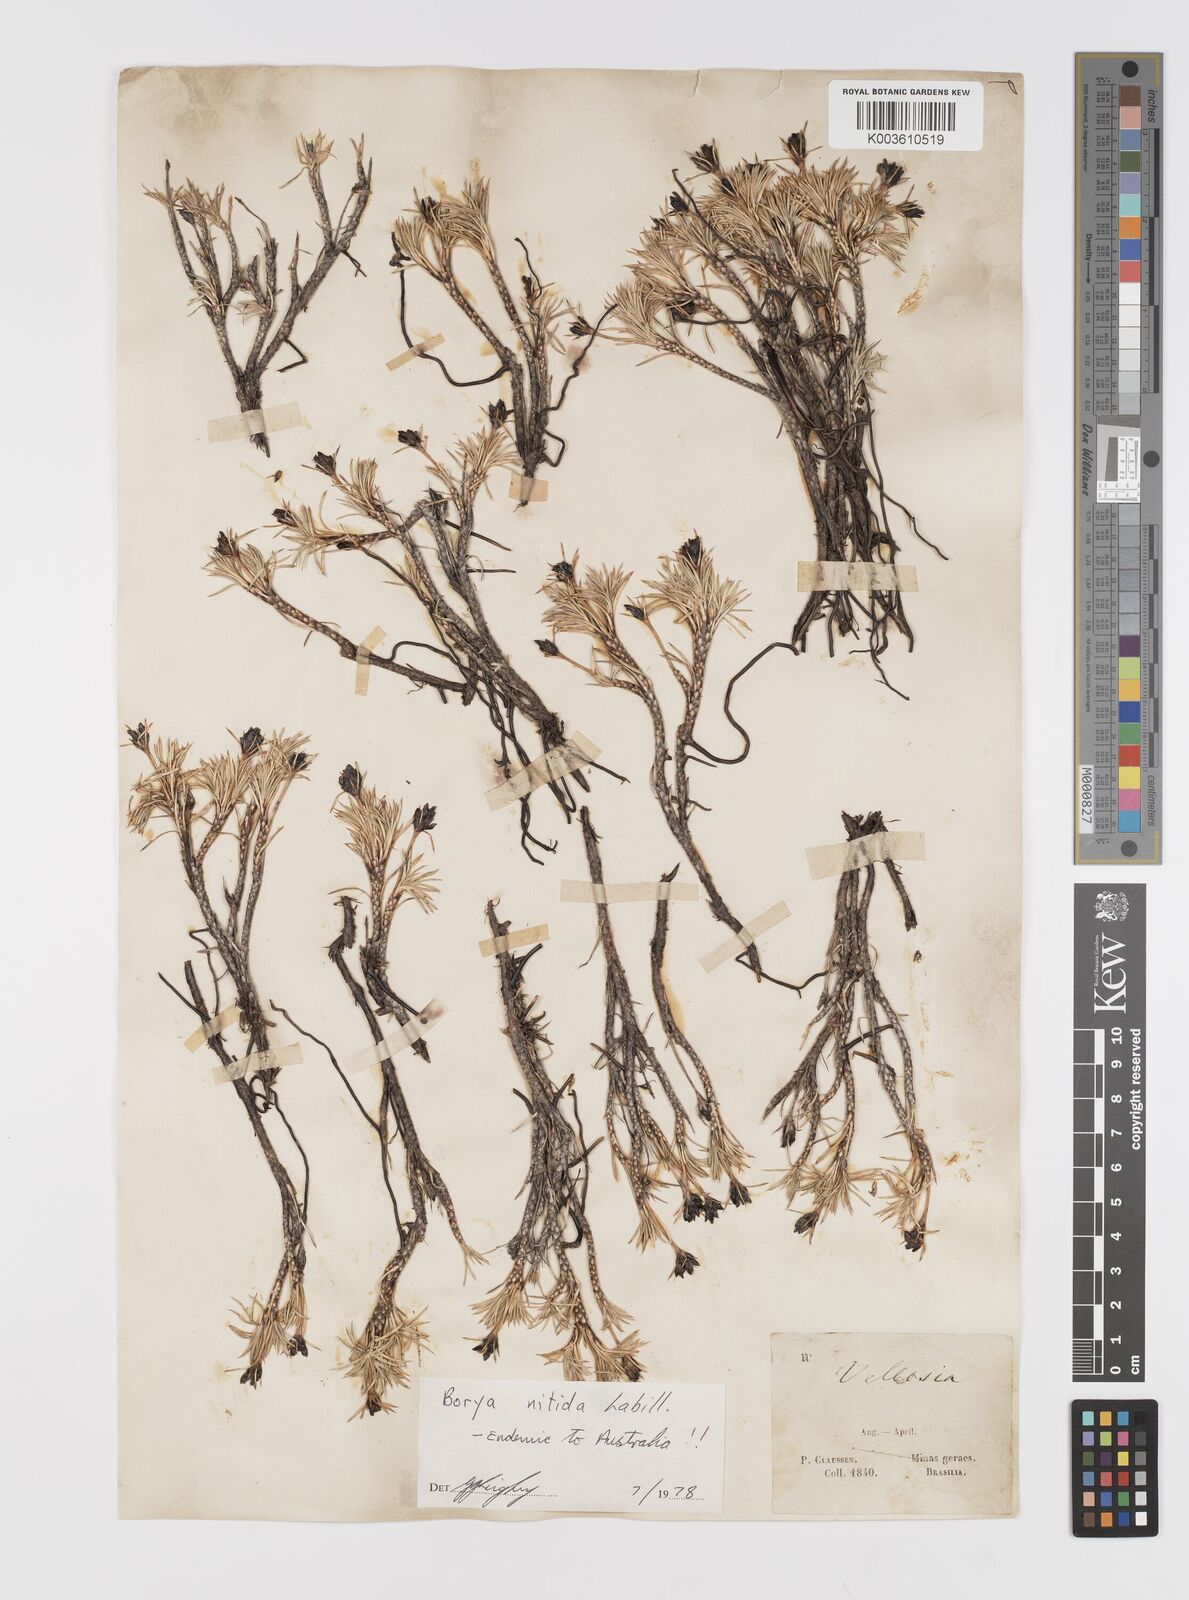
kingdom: Plantae
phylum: Tracheophyta
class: Liliopsida
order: Asparagales
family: Boryaceae
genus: Borya
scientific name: Borya nitida
